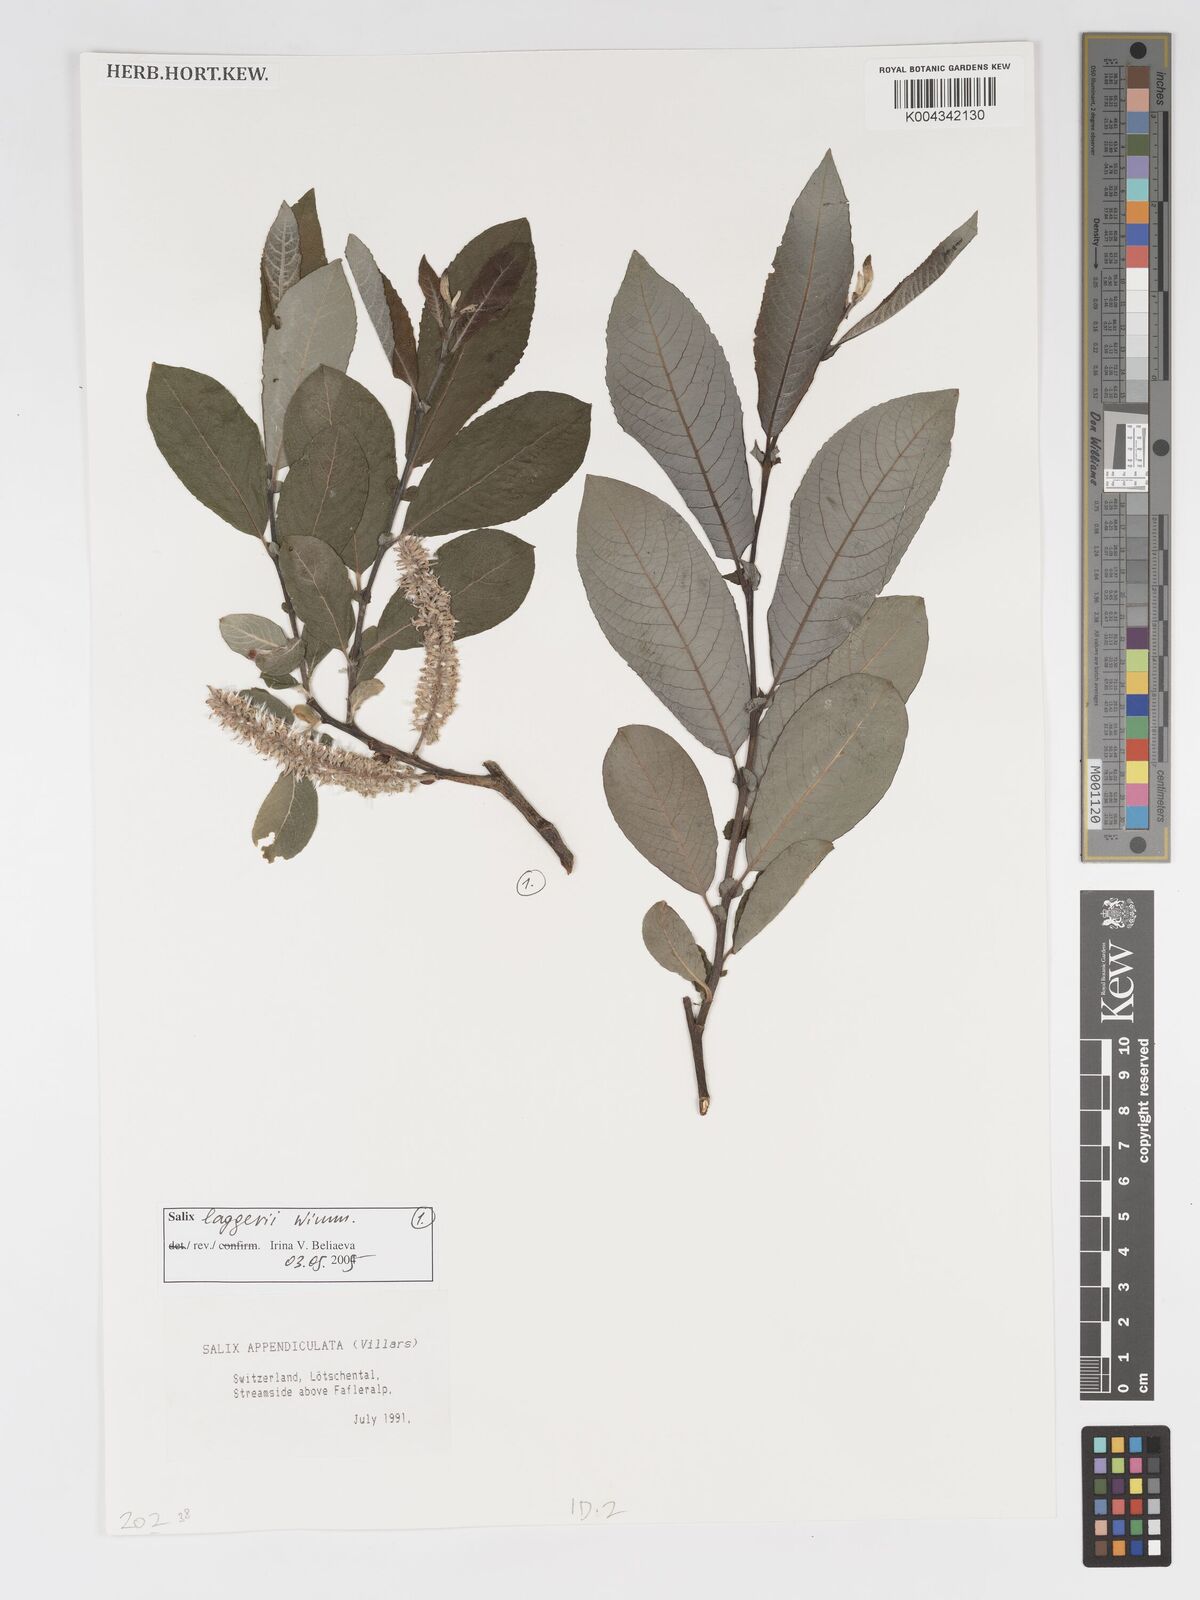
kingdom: Plantae
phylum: Tracheophyta
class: Magnoliopsida
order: Malpighiales
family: Salicaceae
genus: Salix
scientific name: Salix laggeri
